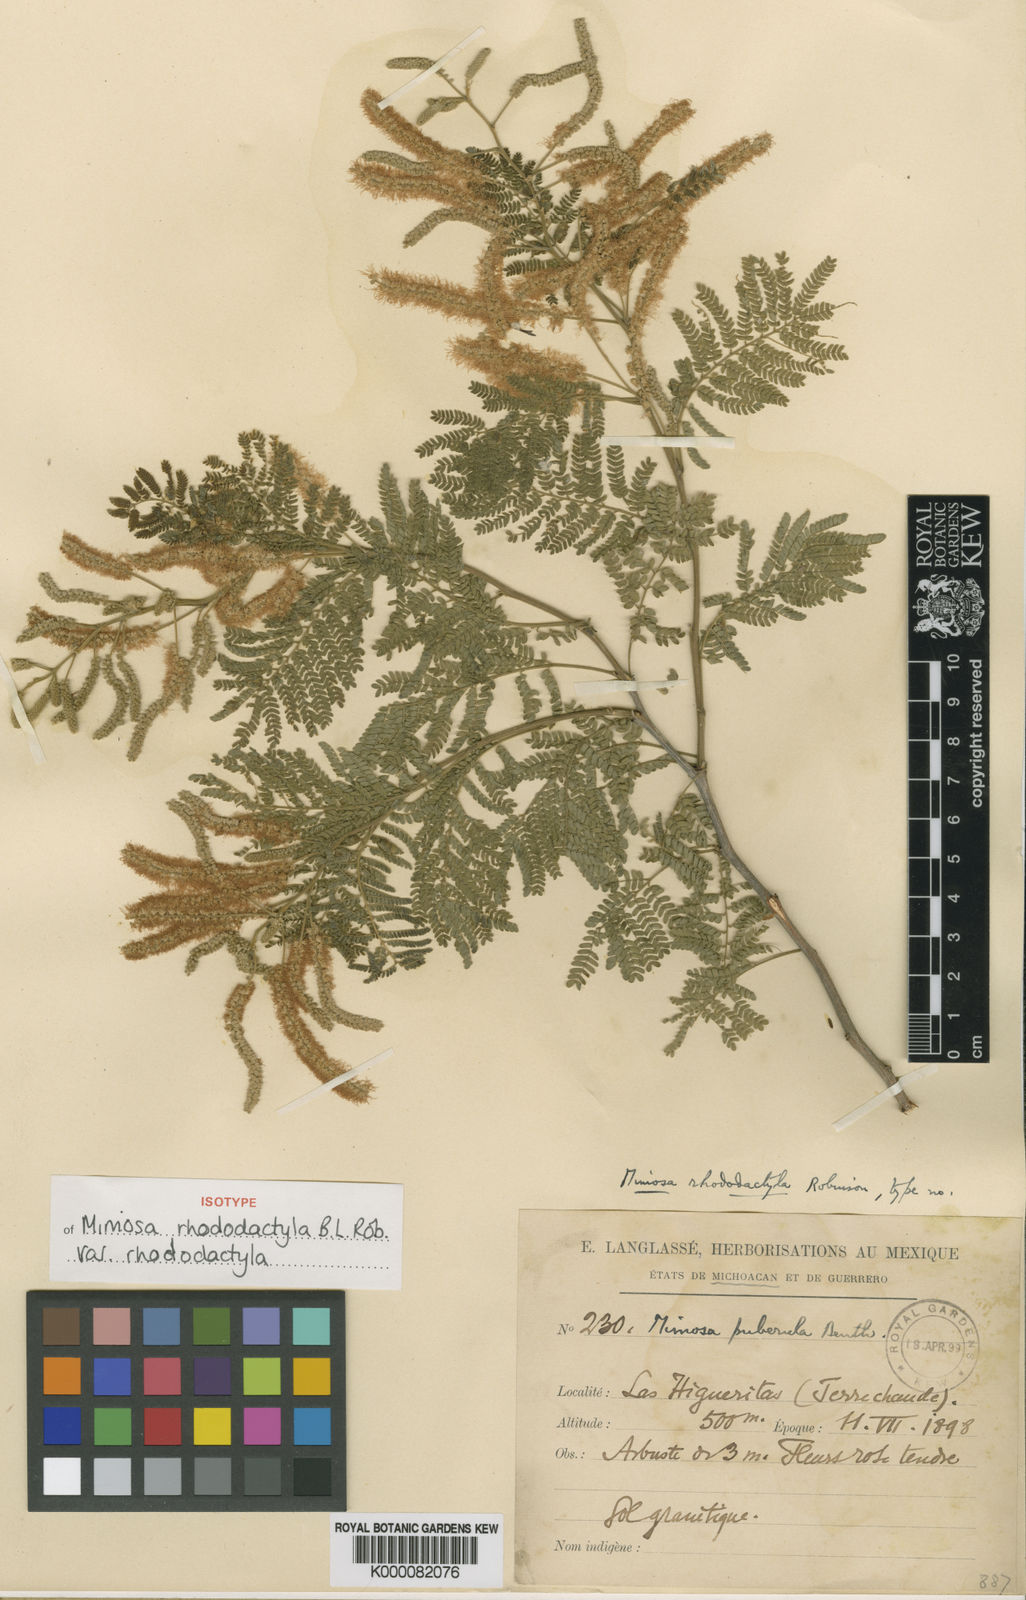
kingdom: Plantae
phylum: Tracheophyta
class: Magnoliopsida
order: Fabales
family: Fabaceae
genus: Mimosa
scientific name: Mimosa rhododactyla
